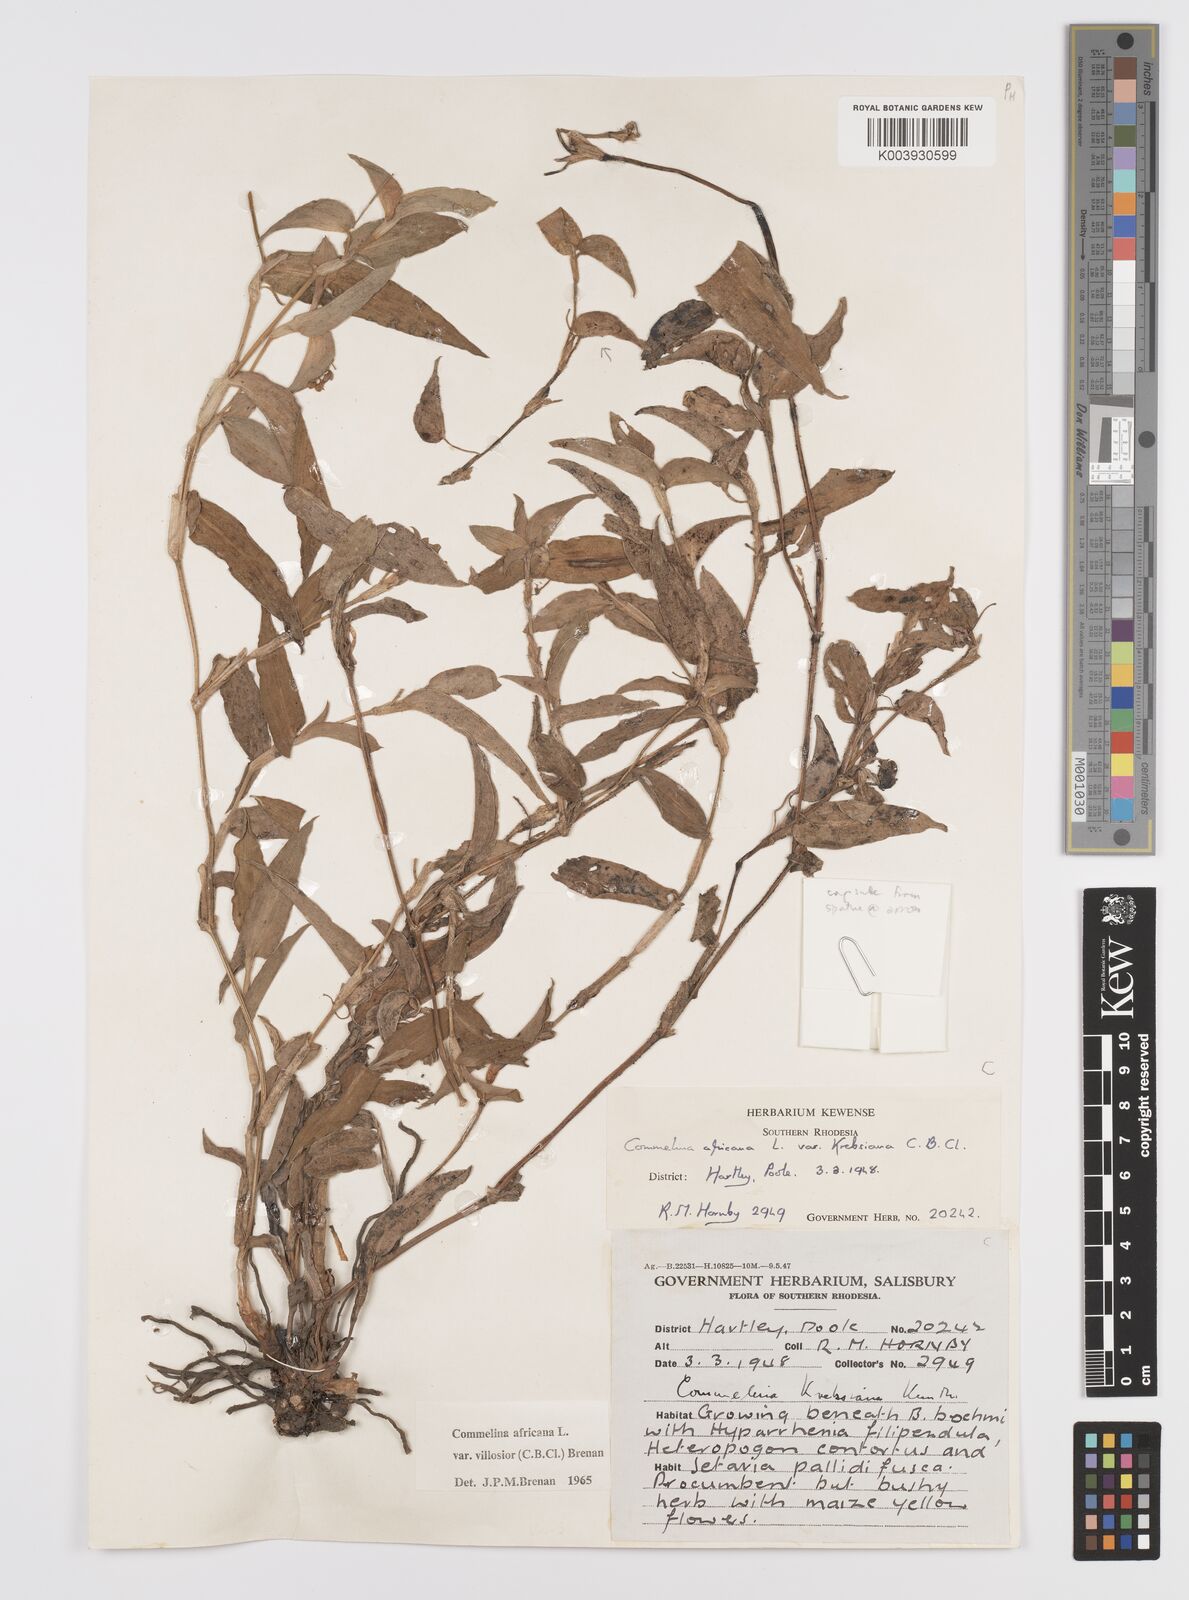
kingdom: Plantae
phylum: Tracheophyta
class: Liliopsida
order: Commelinales
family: Commelinaceae
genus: Commelina
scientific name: Commelina africana
